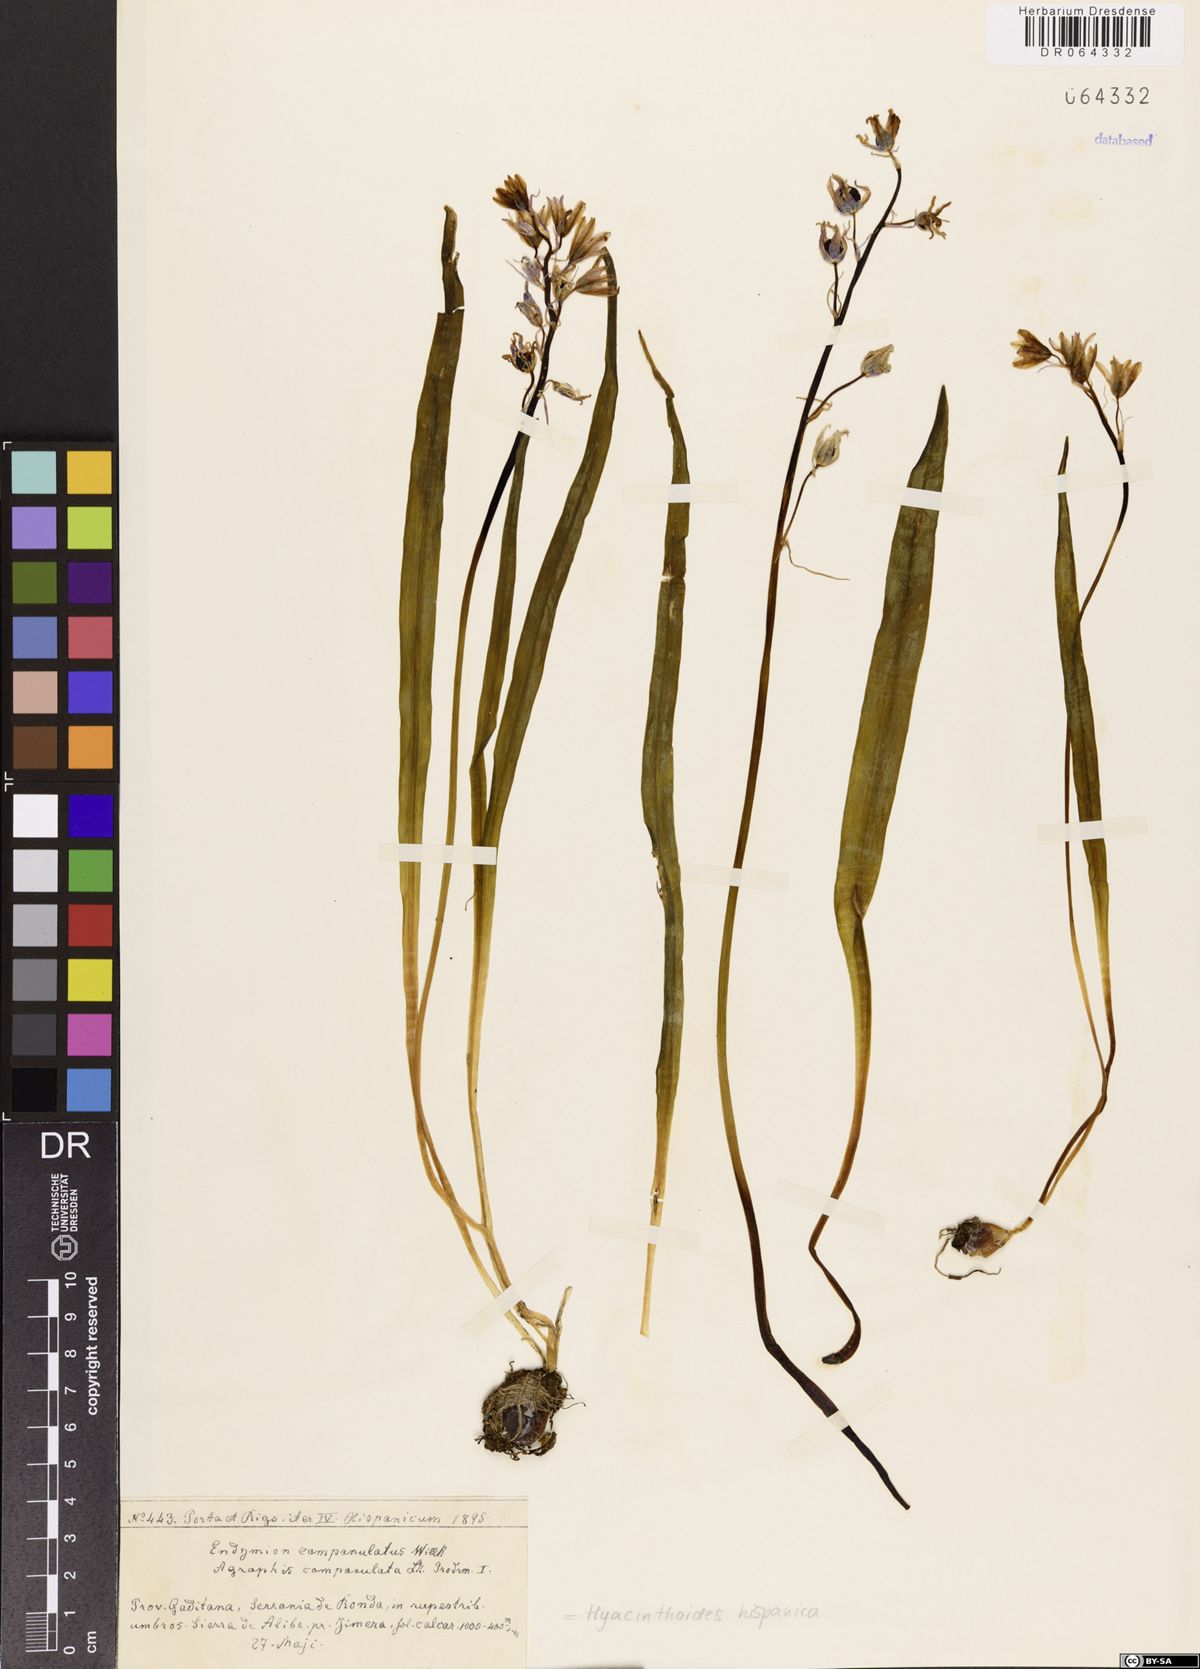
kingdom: Plantae
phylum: Tracheophyta
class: Liliopsida
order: Asparagales
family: Asparagaceae
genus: Hyacinthoides
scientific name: Hyacinthoides hispanica
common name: Spanish bluebell
